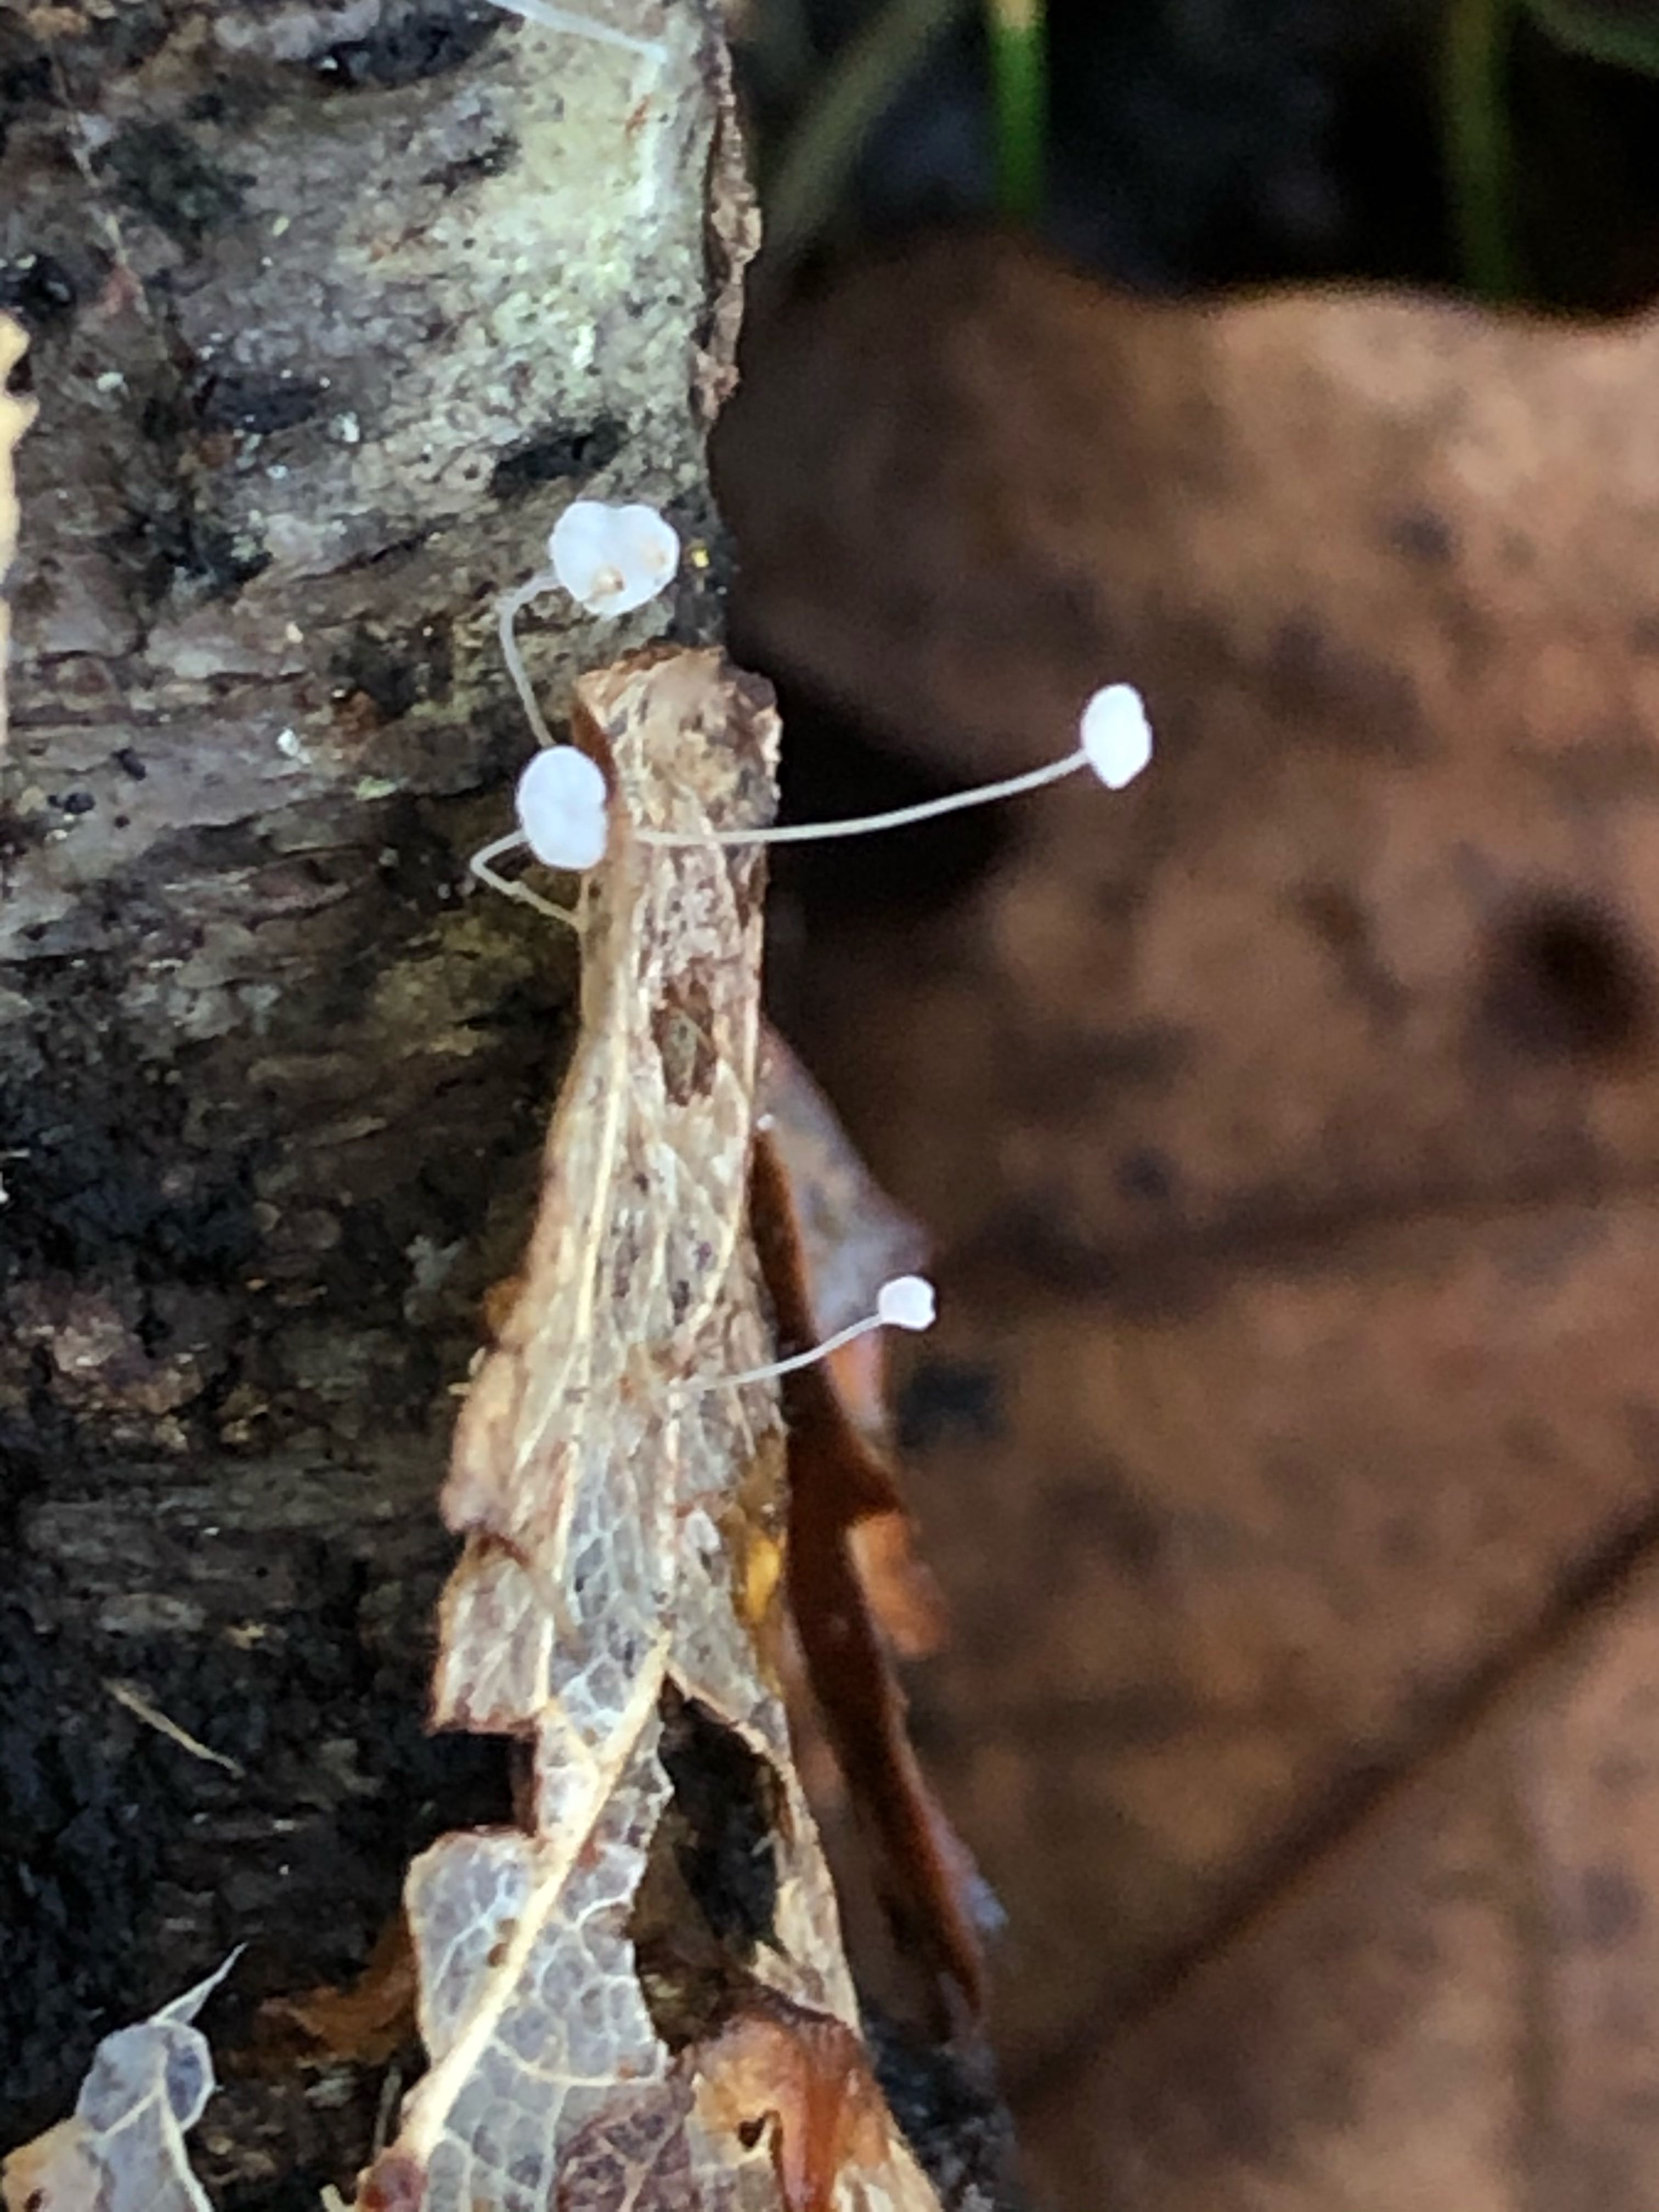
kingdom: Fungi
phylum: Basidiomycota
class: Agaricomycetes
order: Agaricales
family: Mycenaceae
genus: Mycena
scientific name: Mycena
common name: huesvamp
